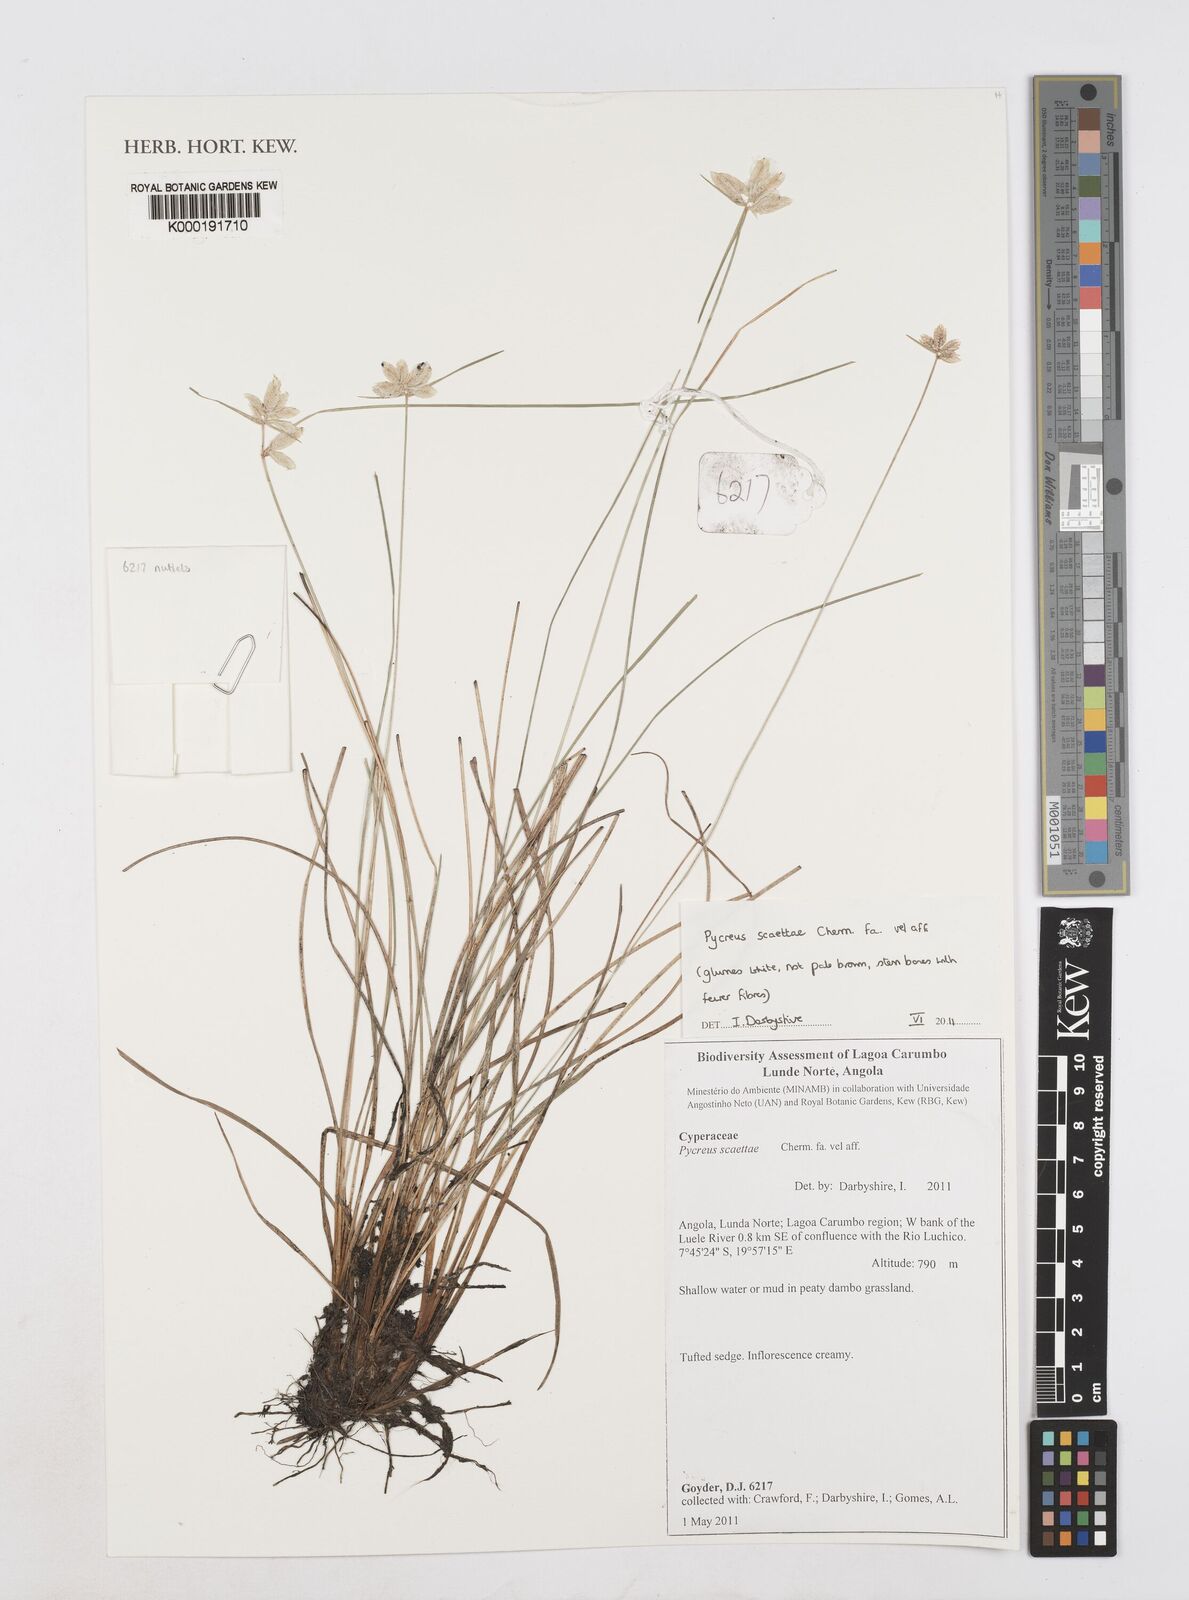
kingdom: Plantae
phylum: Tracheophyta
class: Liliopsida
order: Poales
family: Cyperaceae
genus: Cyperus
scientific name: Cyperus scaettae
